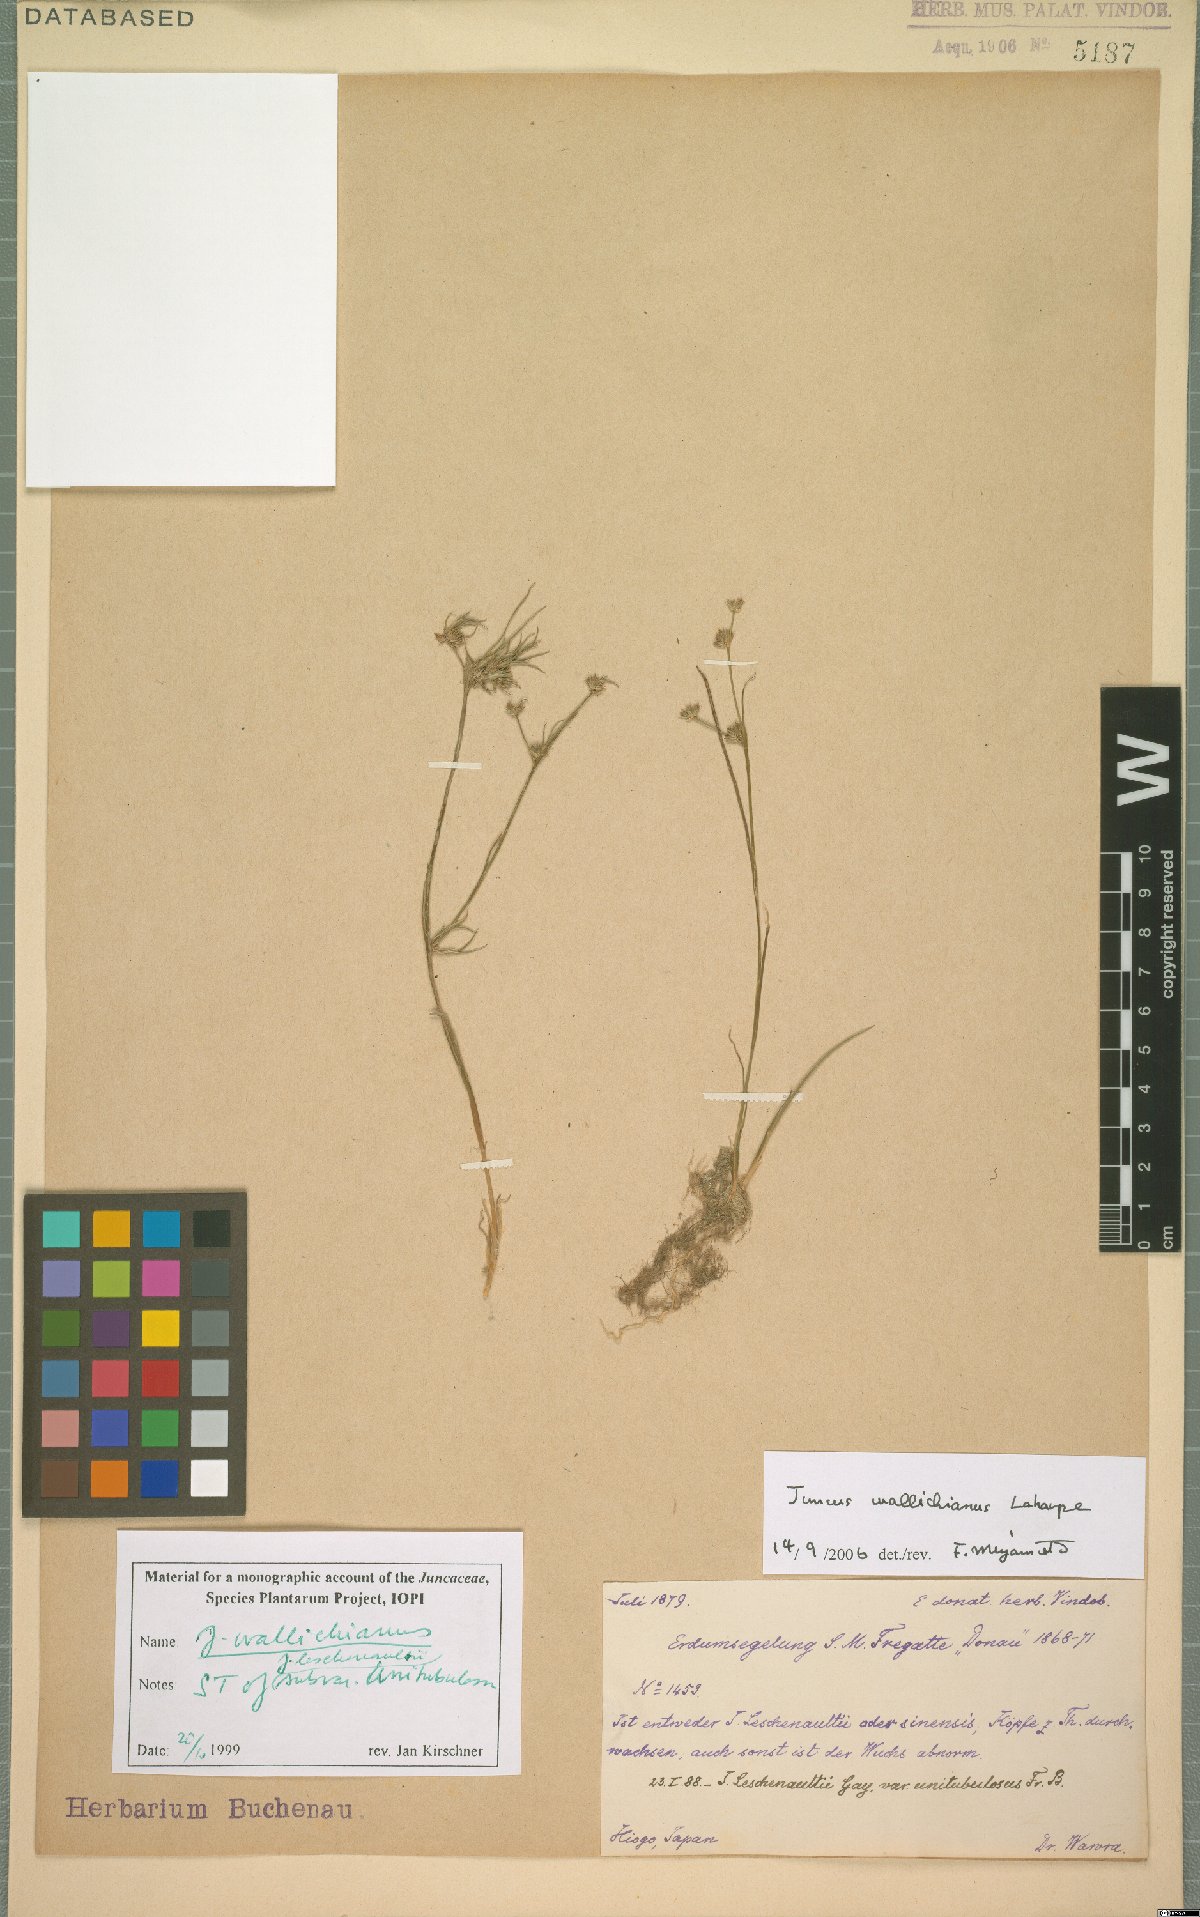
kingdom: Plantae
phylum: Tracheophyta
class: Liliopsida
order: Poales
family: Juncaceae
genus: Juncus
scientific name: Juncus wallichianus
